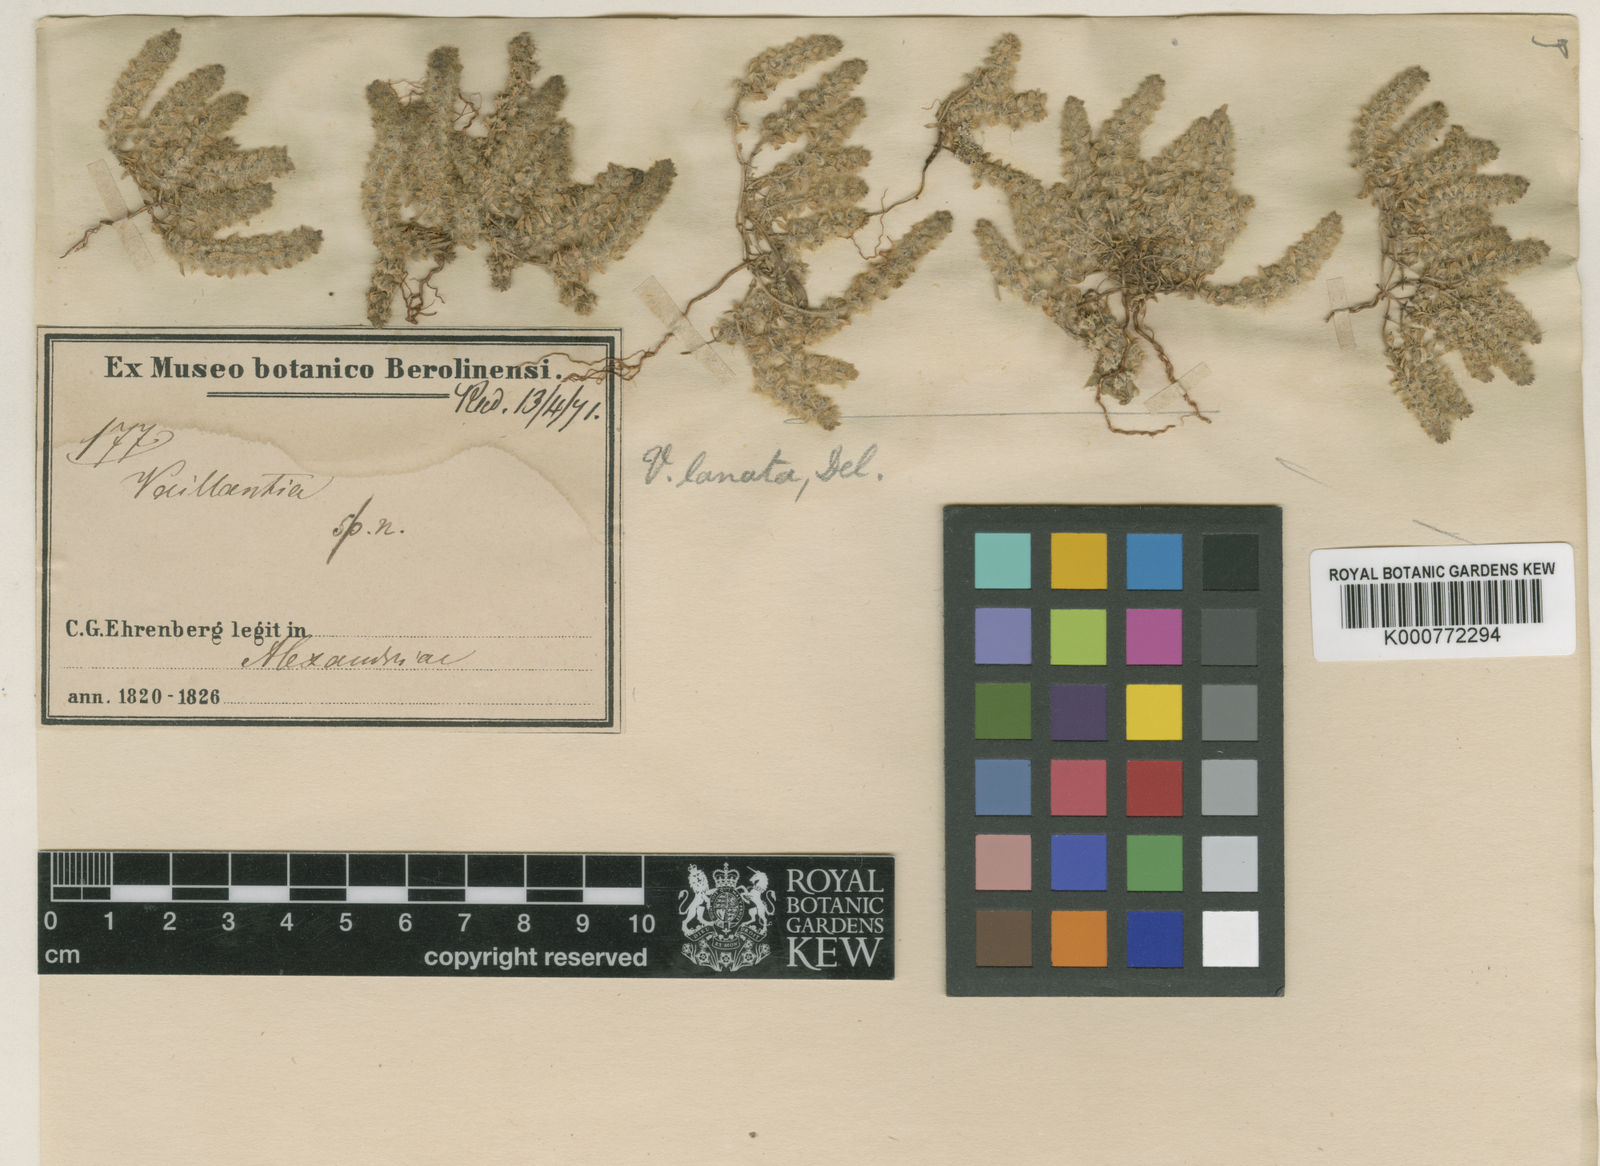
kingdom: Plantae
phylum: Tracheophyta
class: Magnoliopsida
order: Gentianales
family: Rubiaceae
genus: Valantia
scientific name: Valantia columella
